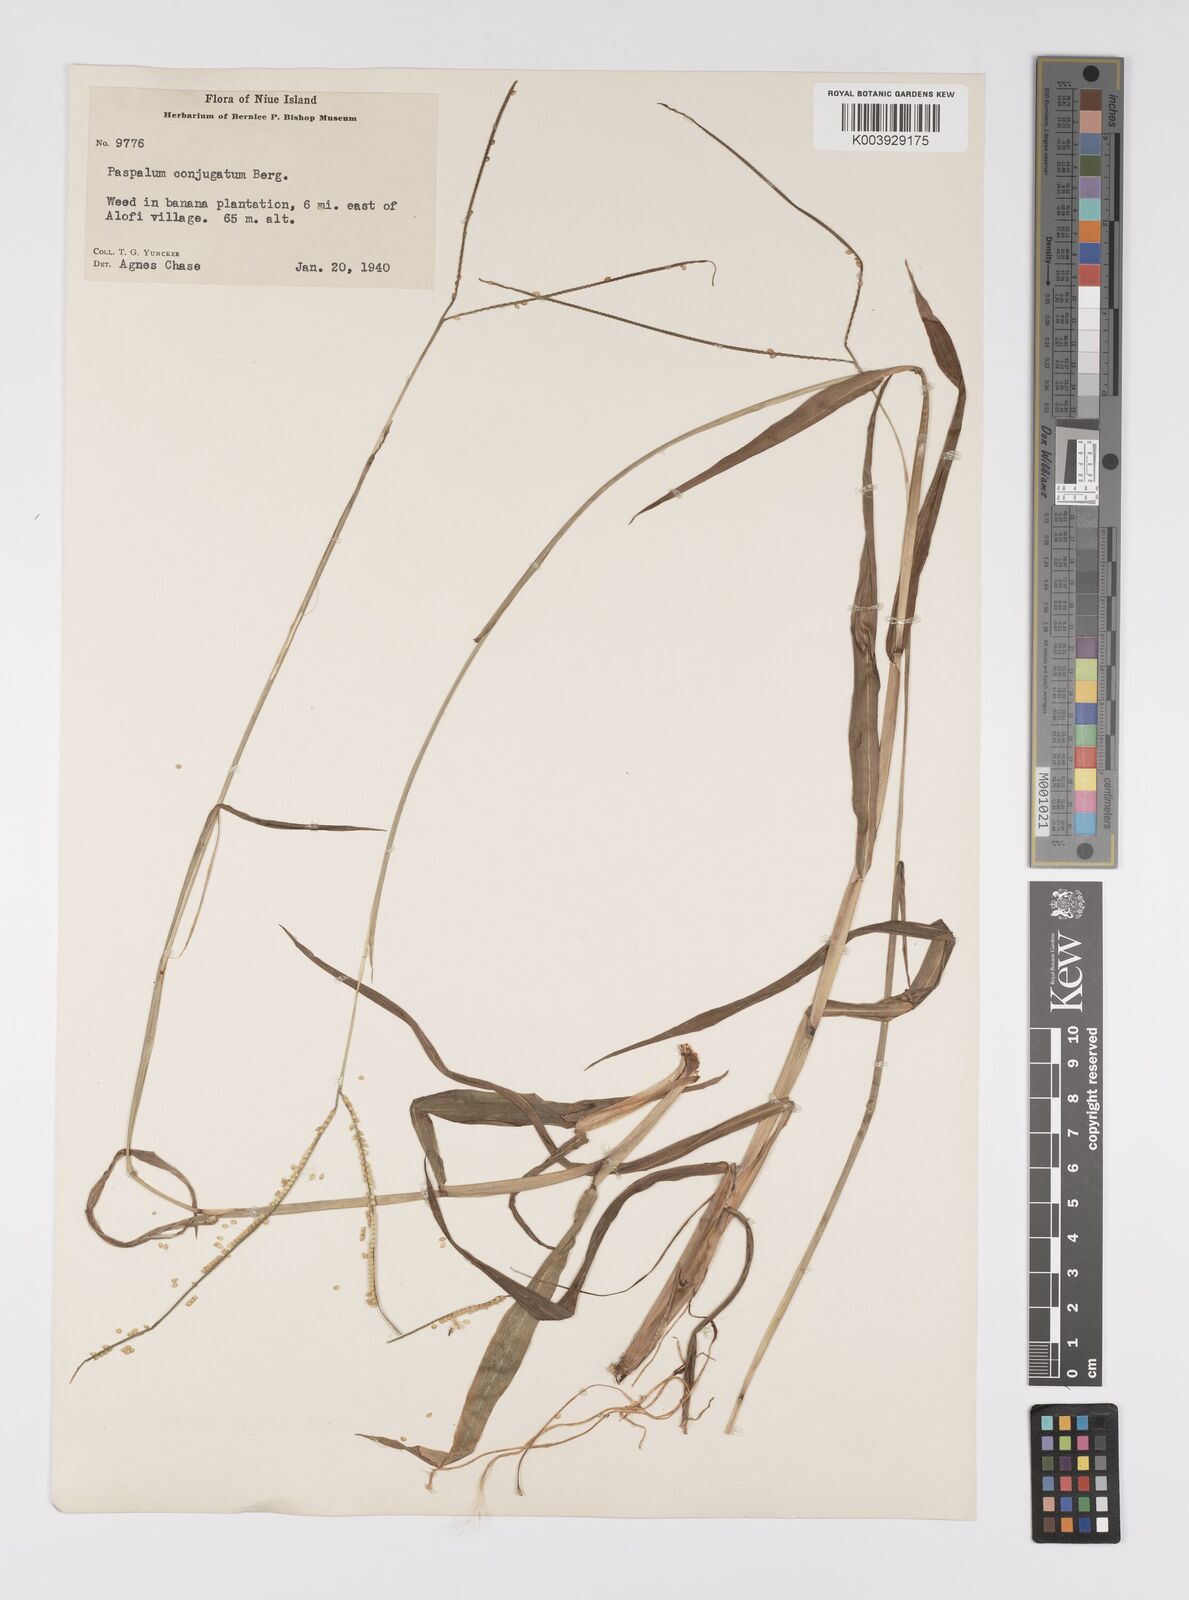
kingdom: Plantae
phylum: Tracheophyta
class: Liliopsida
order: Poales
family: Poaceae
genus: Paspalum
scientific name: Paspalum conjugatum
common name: Hilograss
